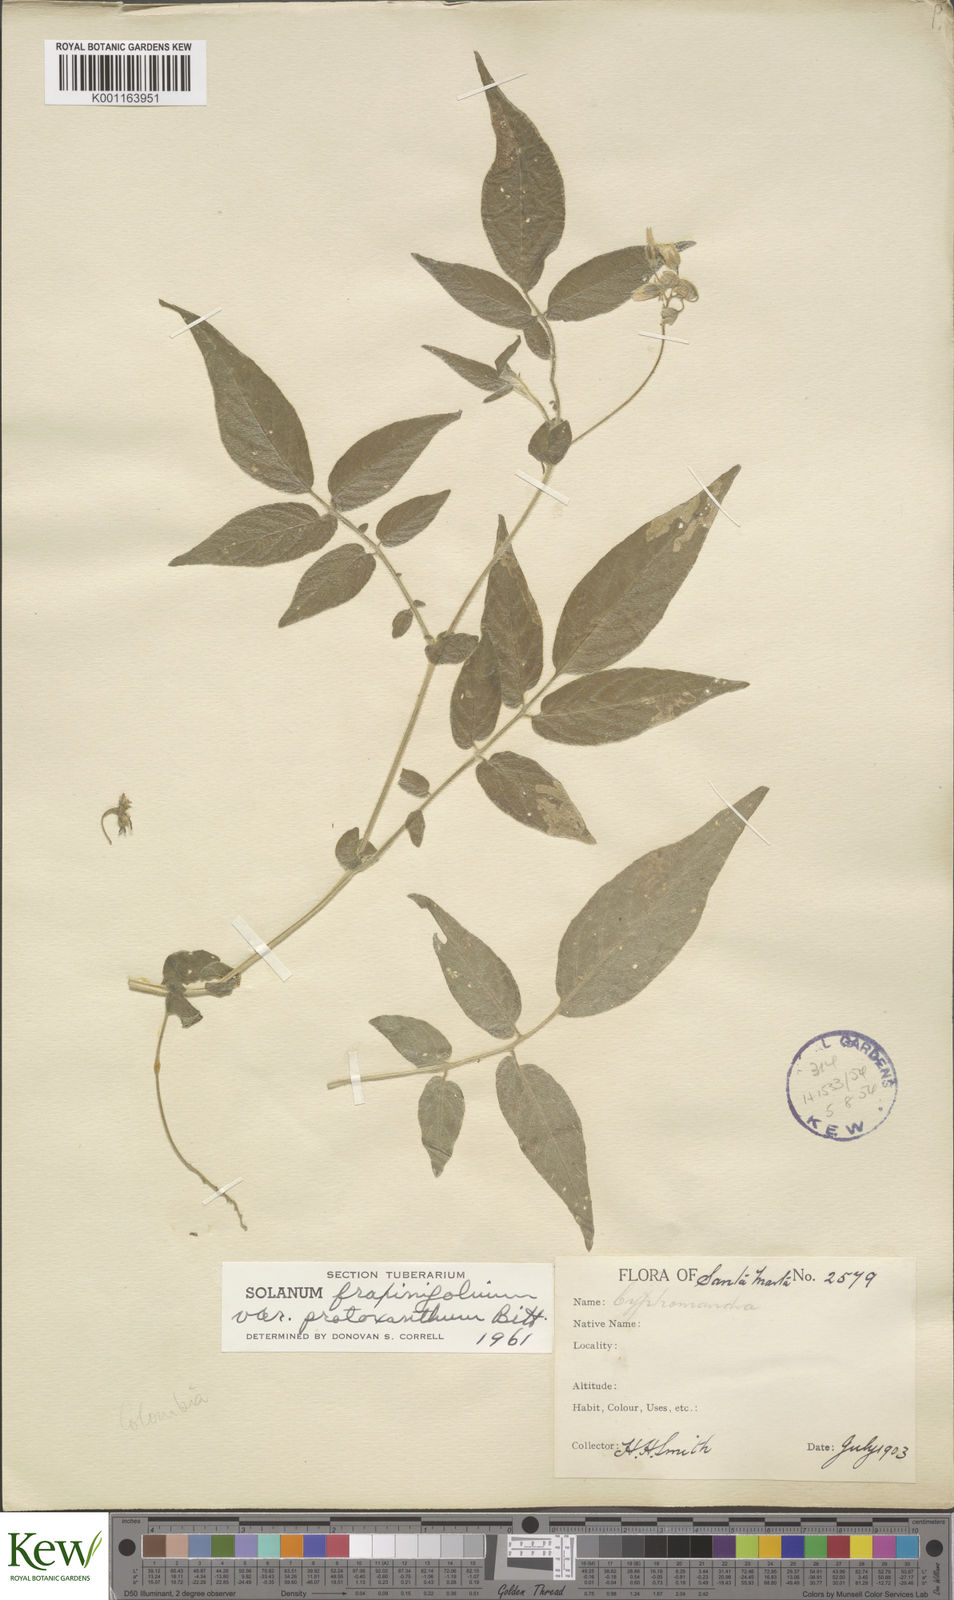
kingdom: Plantae
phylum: Tracheophyta
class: Magnoliopsida
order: Solanales
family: Solanaceae
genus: Solanum
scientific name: Solanum fraxinifolium
